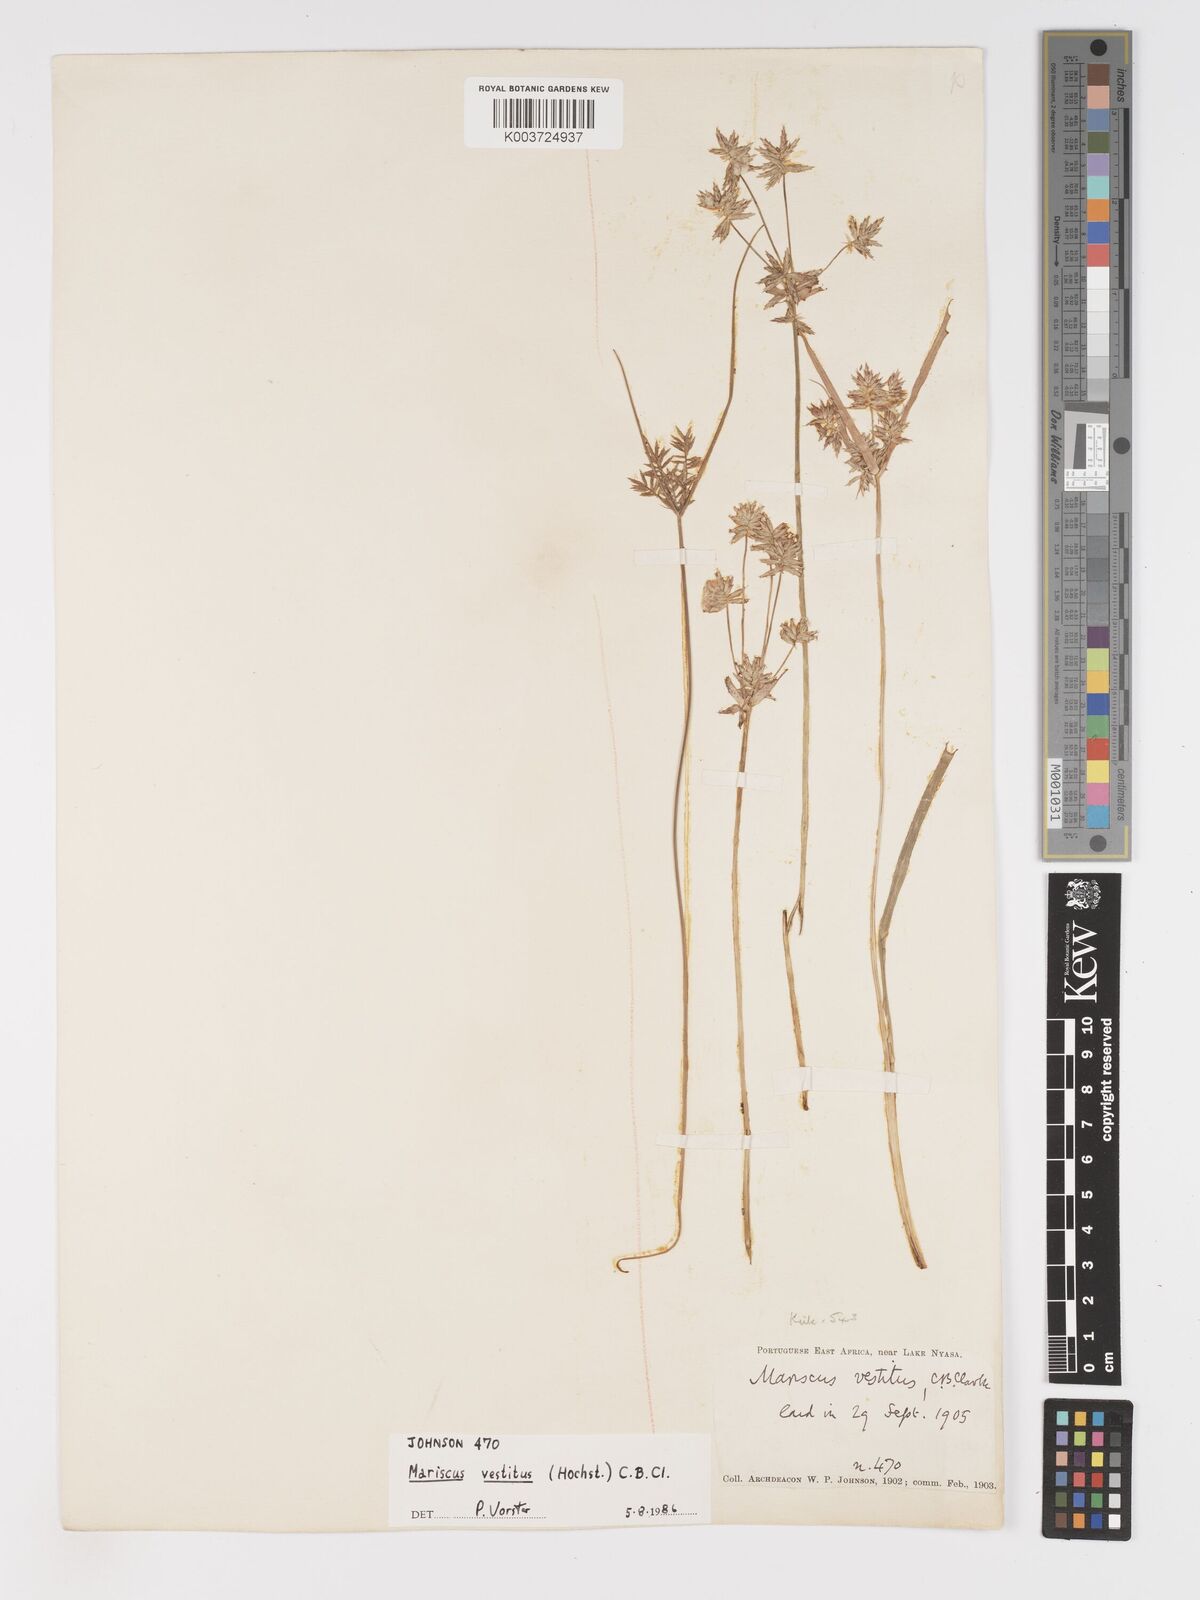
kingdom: Plantae
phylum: Tracheophyta
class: Liliopsida
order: Poales
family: Cyperaceae
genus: Cyperus
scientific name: Cyperus vestitus
